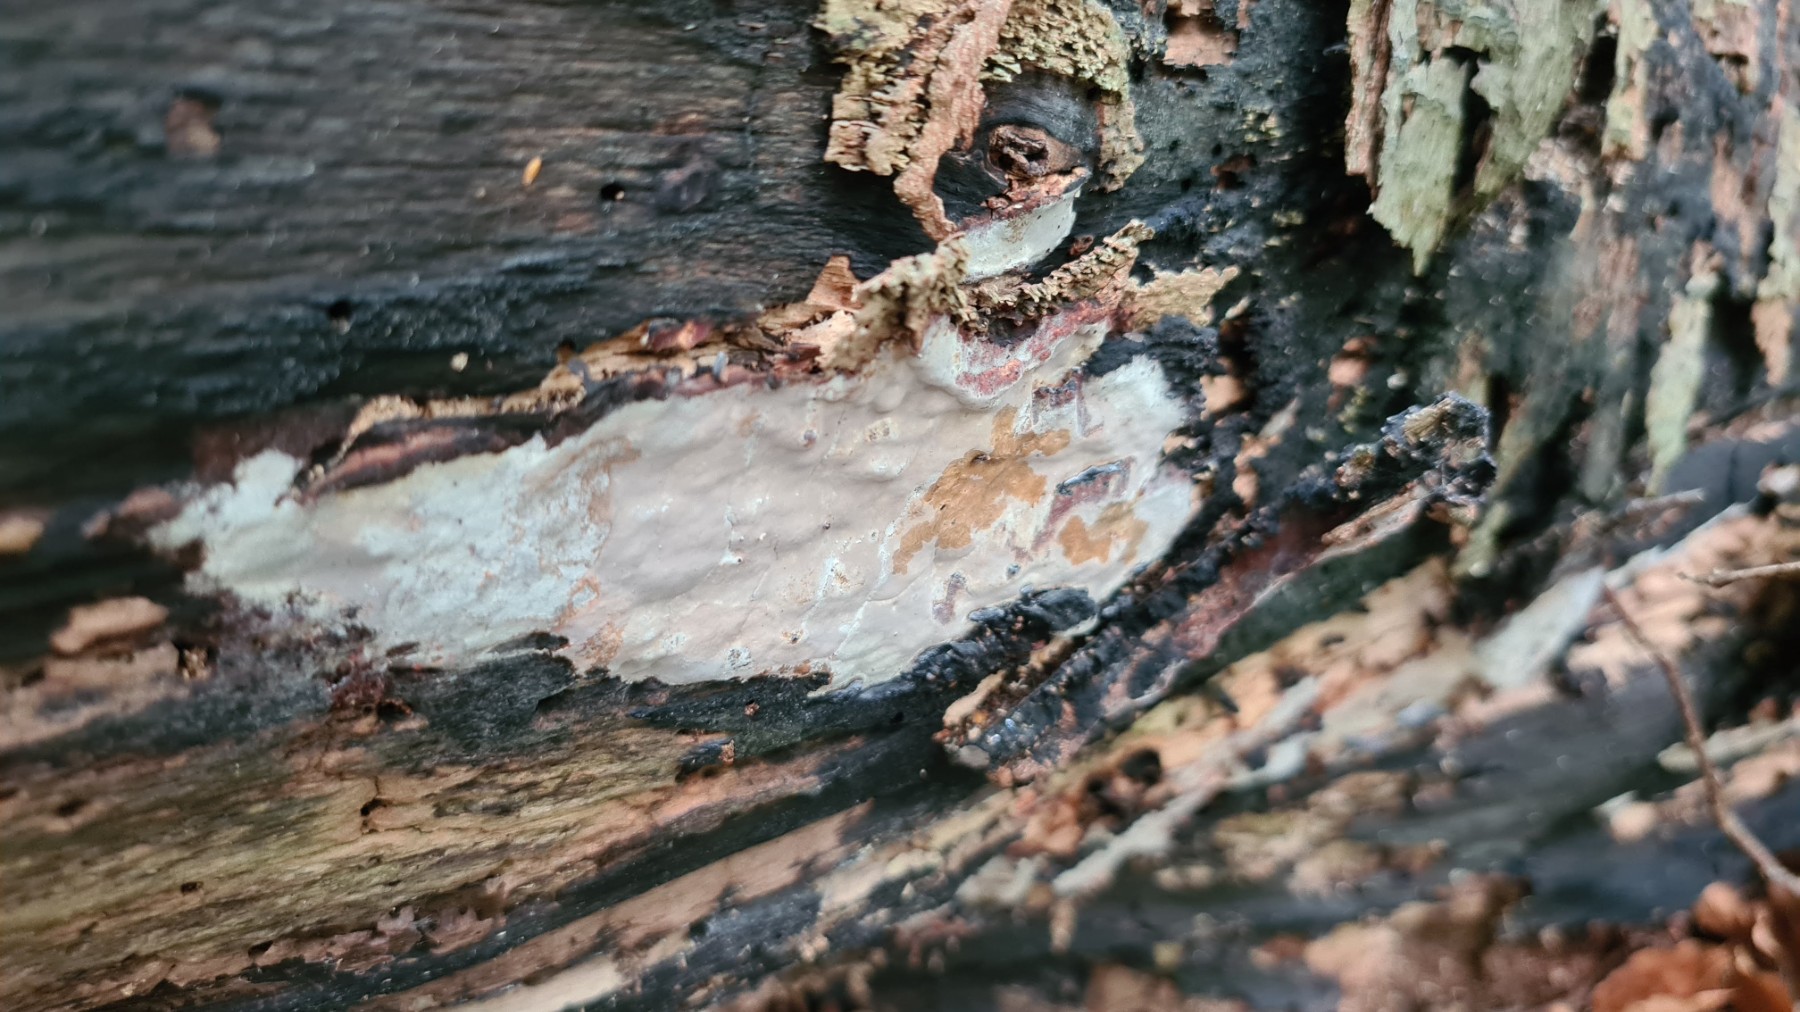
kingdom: Fungi
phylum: Basidiomycota
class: Agaricomycetes
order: Russulales
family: Peniophoraceae
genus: Scytinostroma
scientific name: Scytinostroma hemidichophyticum
